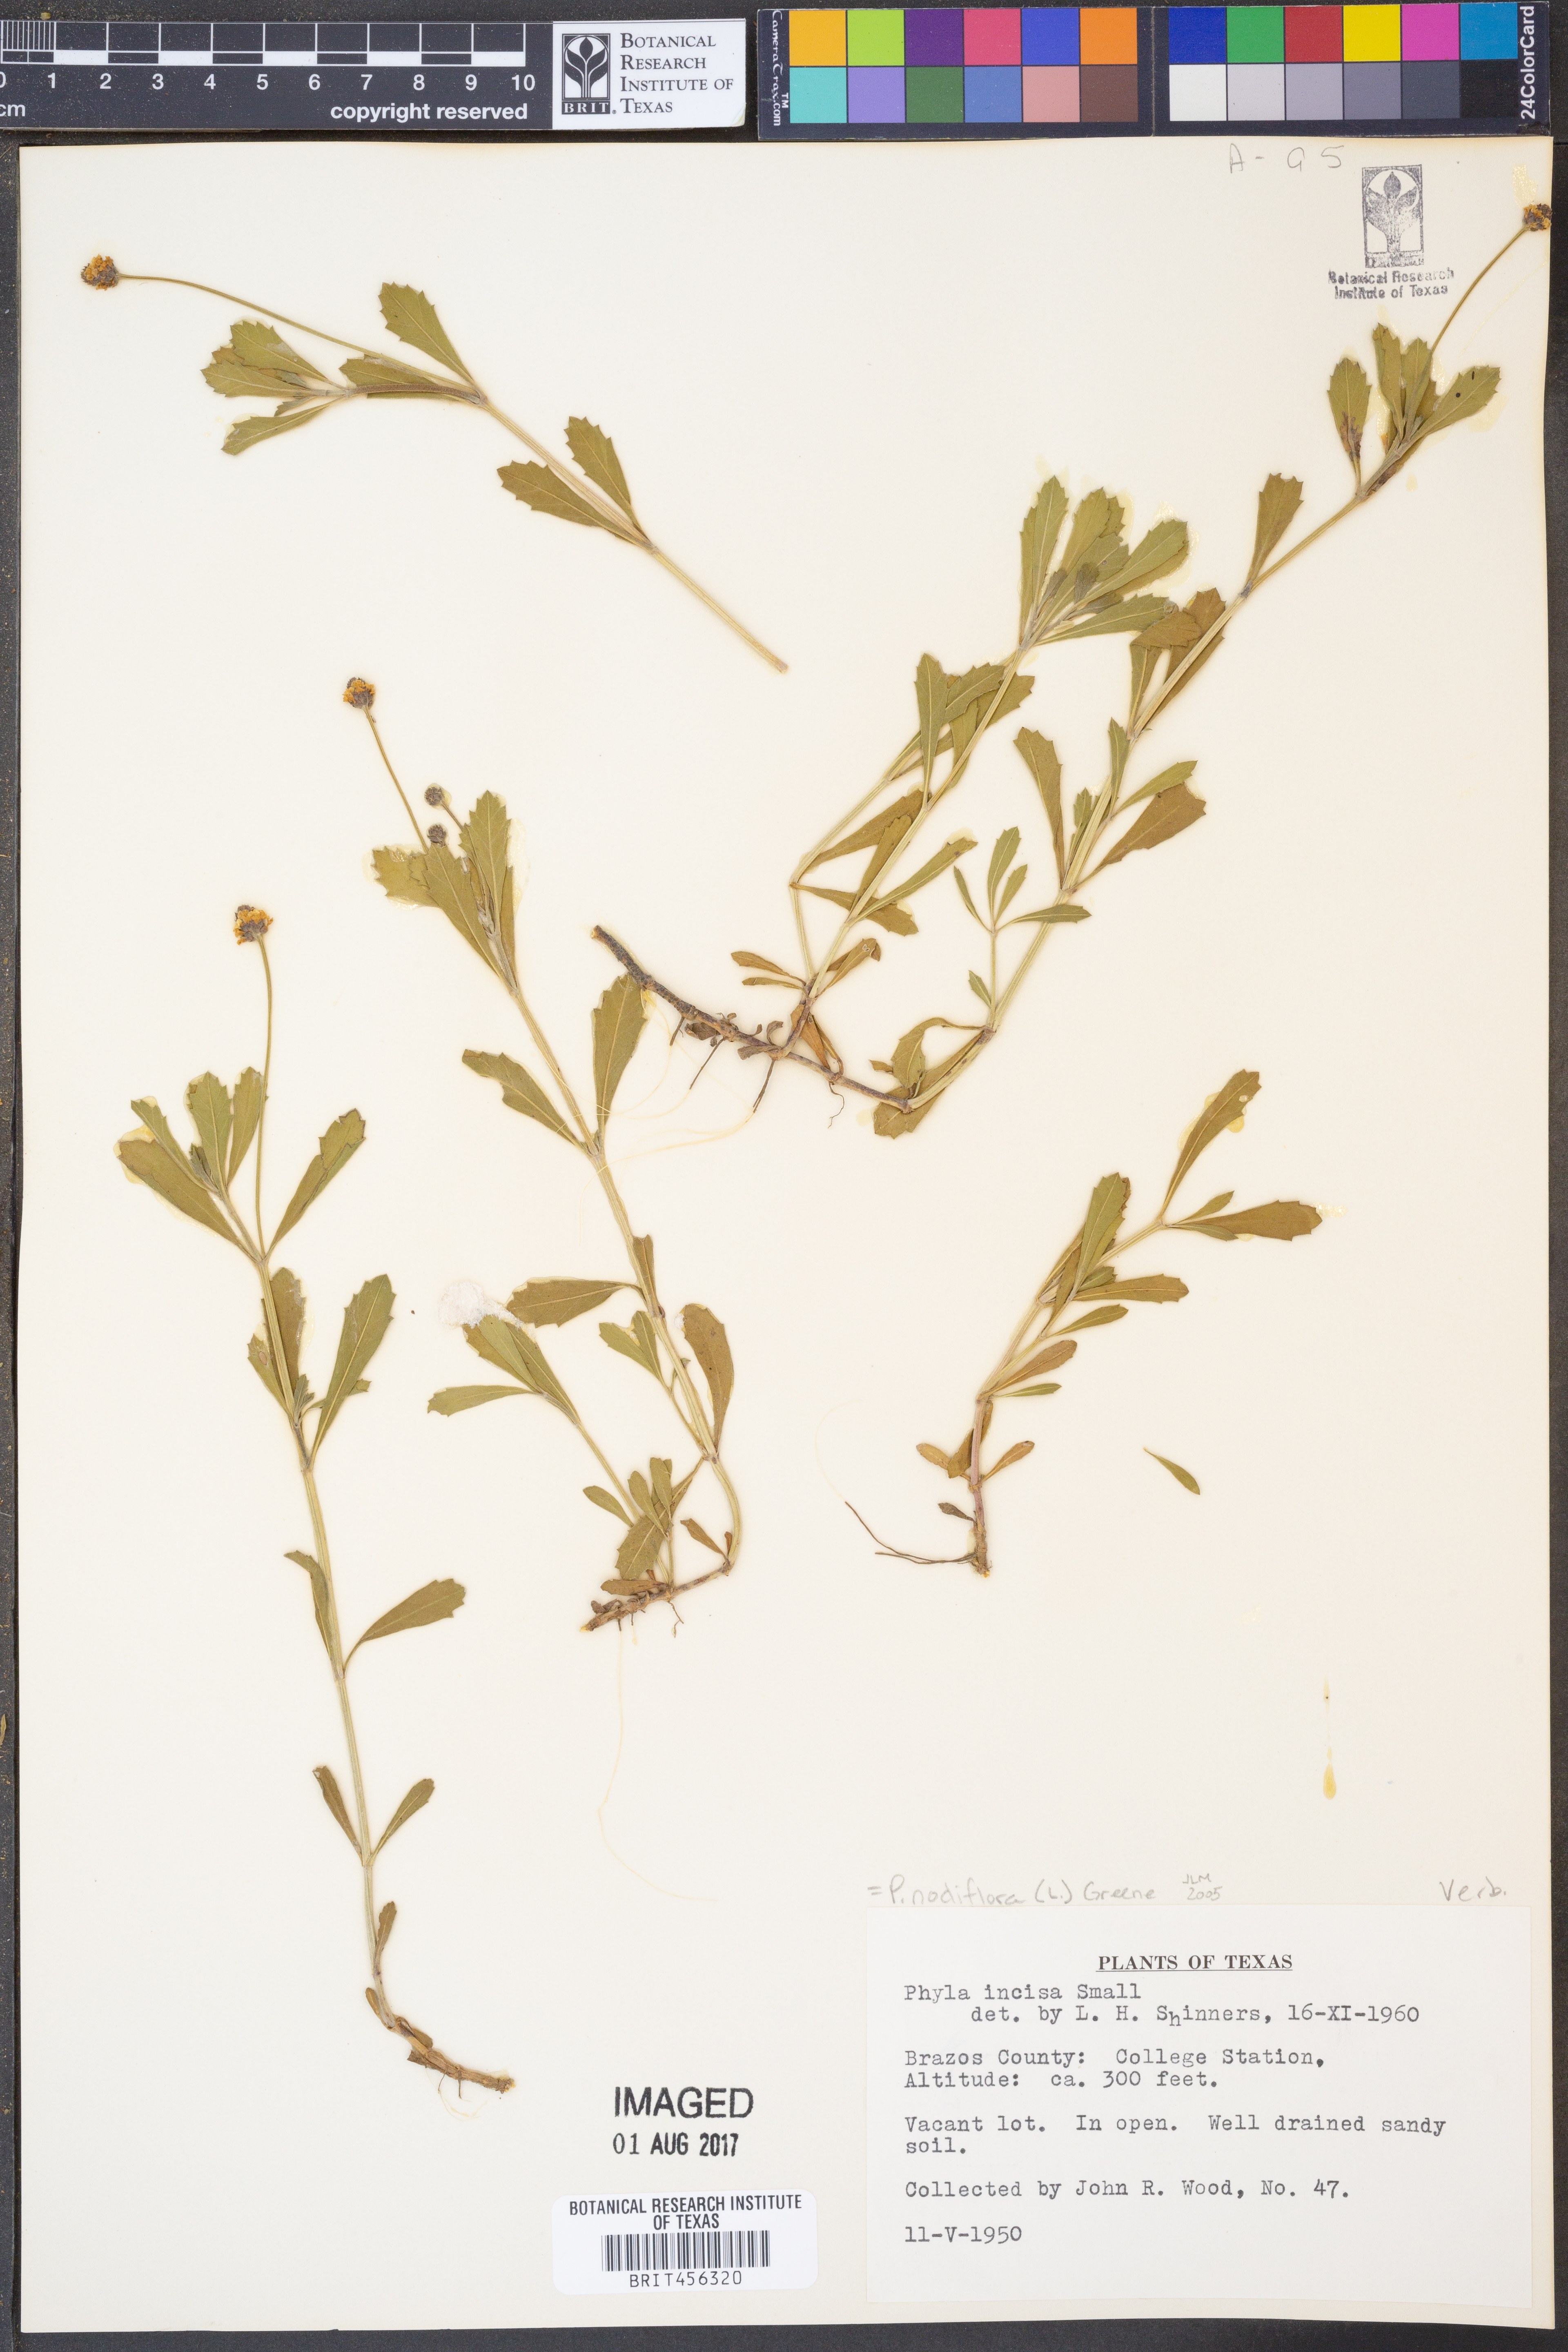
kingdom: Plantae
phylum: Tracheophyta
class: Magnoliopsida
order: Lamiales
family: Verbenaceae
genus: Phyla
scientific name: Phyla nodiflora
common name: Frogfruit
